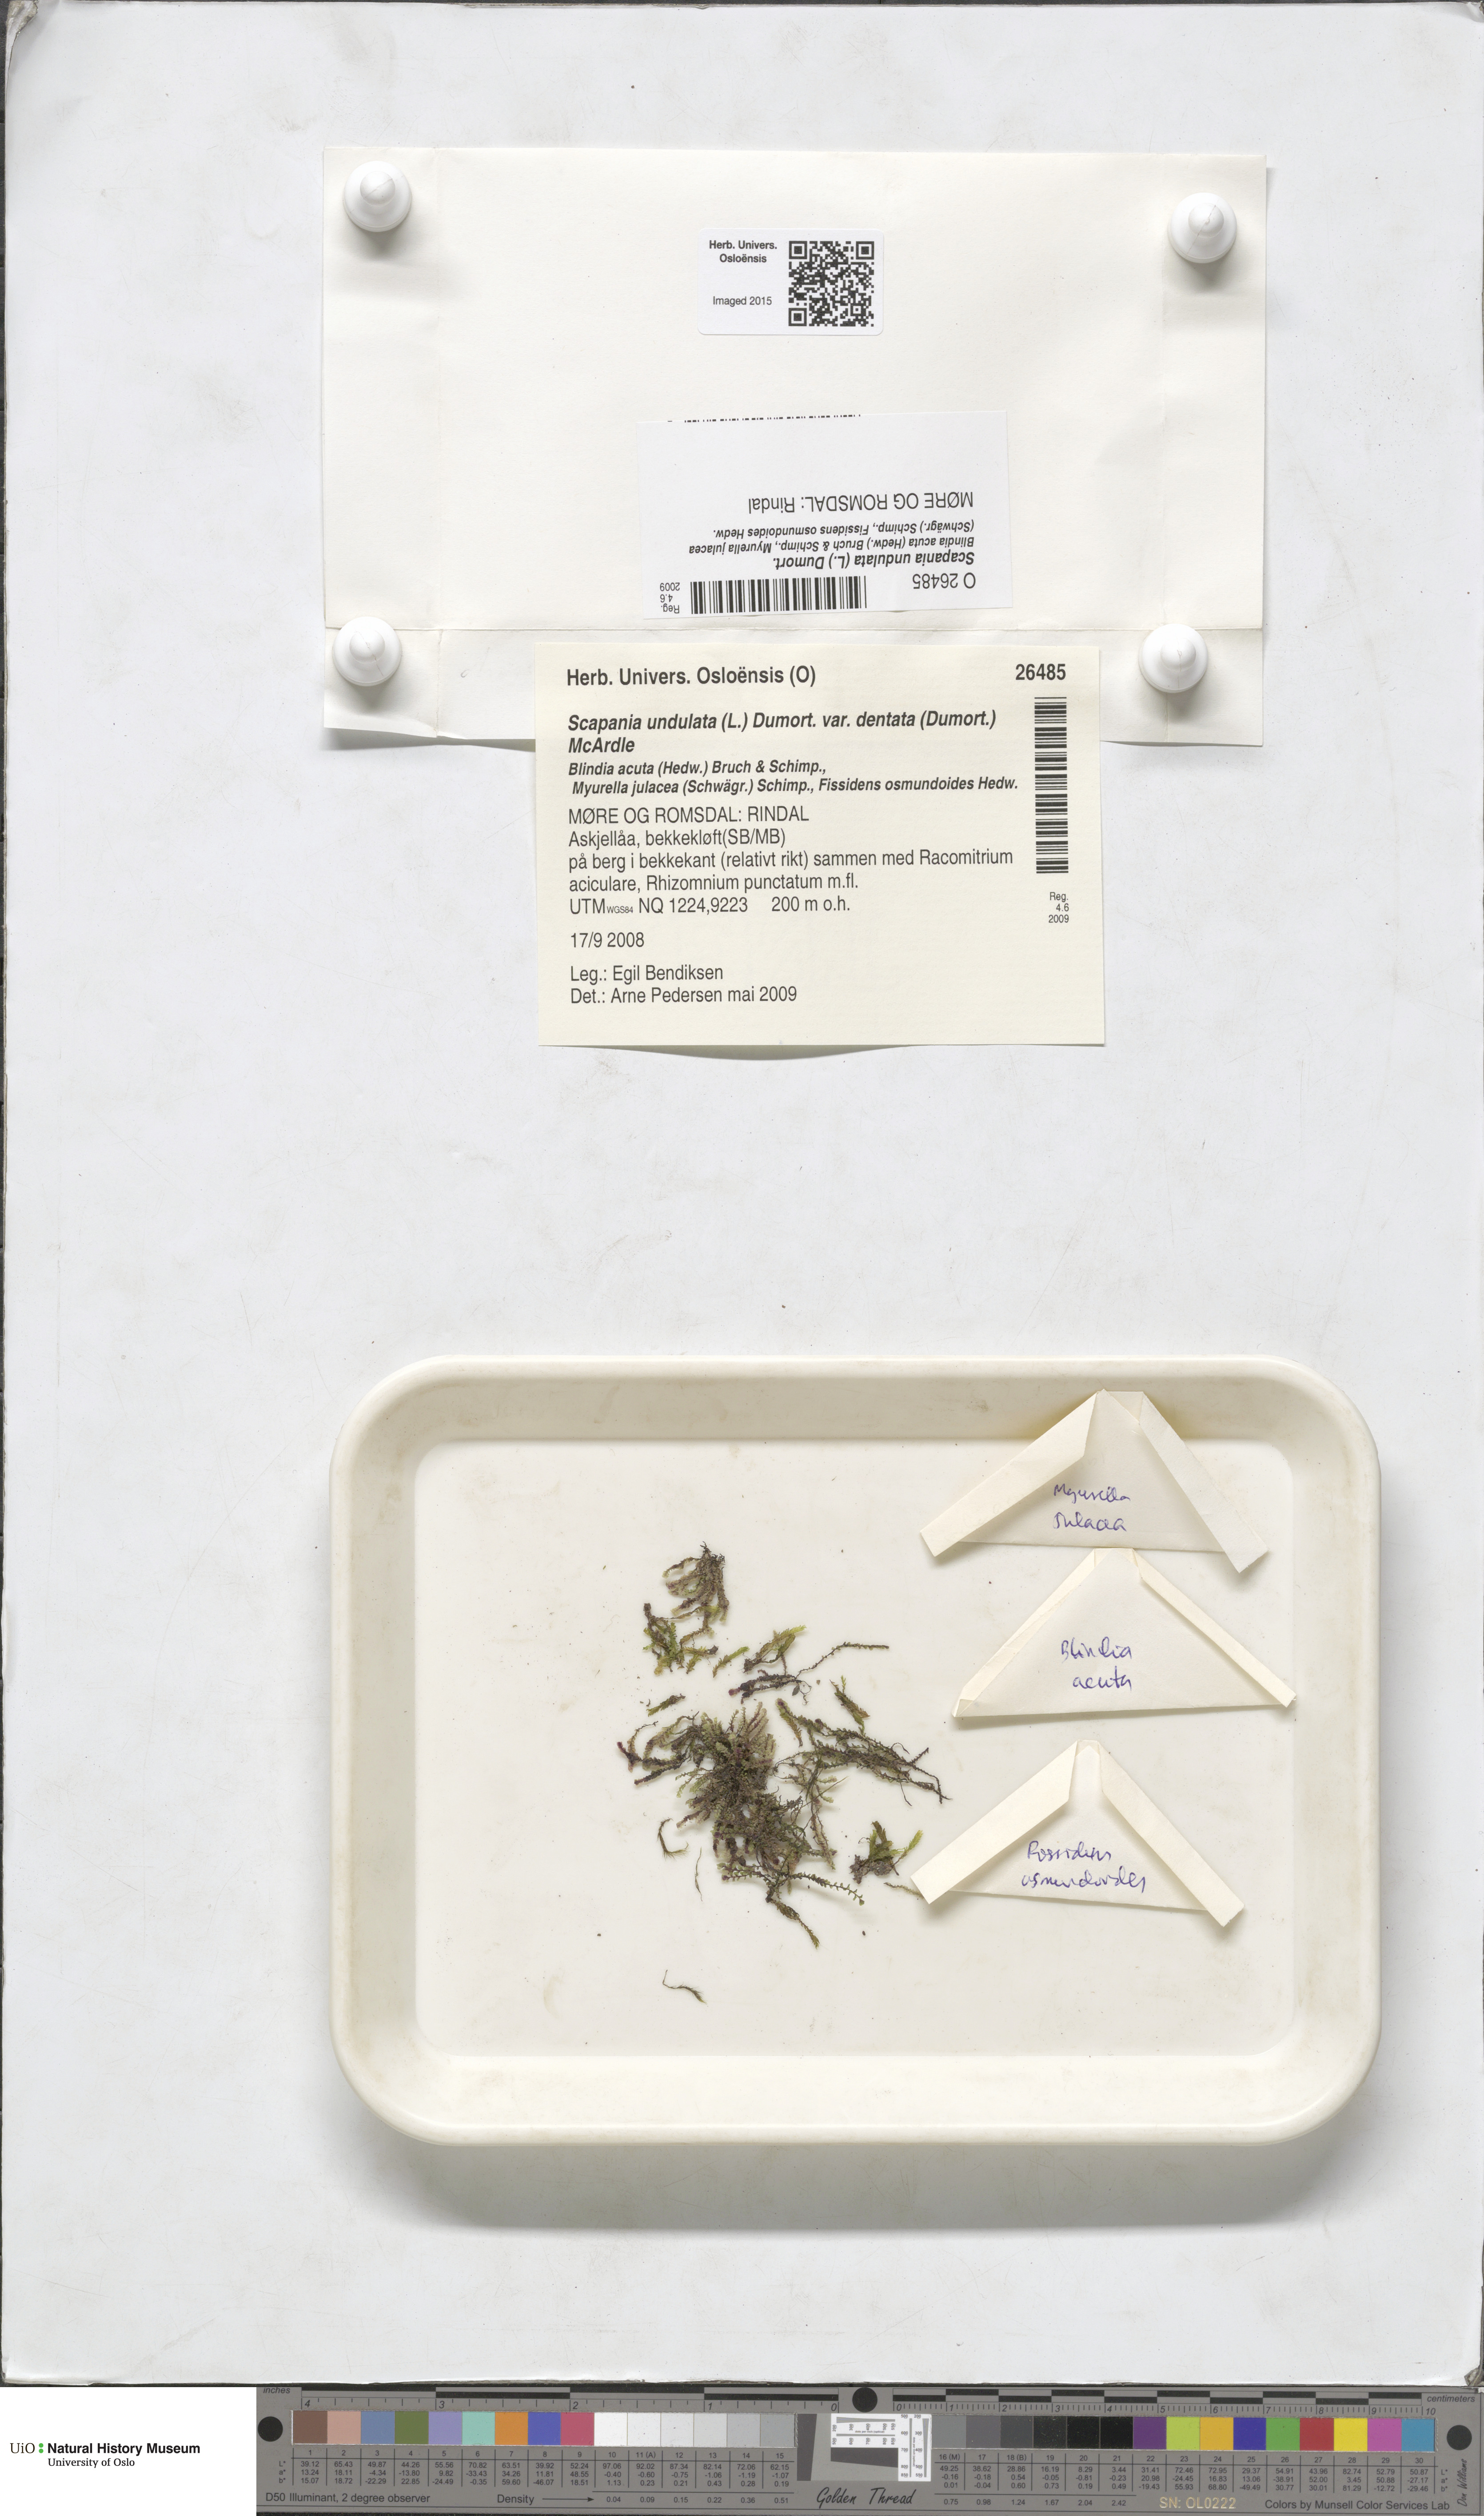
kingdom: Plantae
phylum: Marchantiophyta
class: Jungermanniopsida
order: Jungermanniales
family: Scapaniaceae
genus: Scapania
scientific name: Scapania undulata
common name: Water earwort
